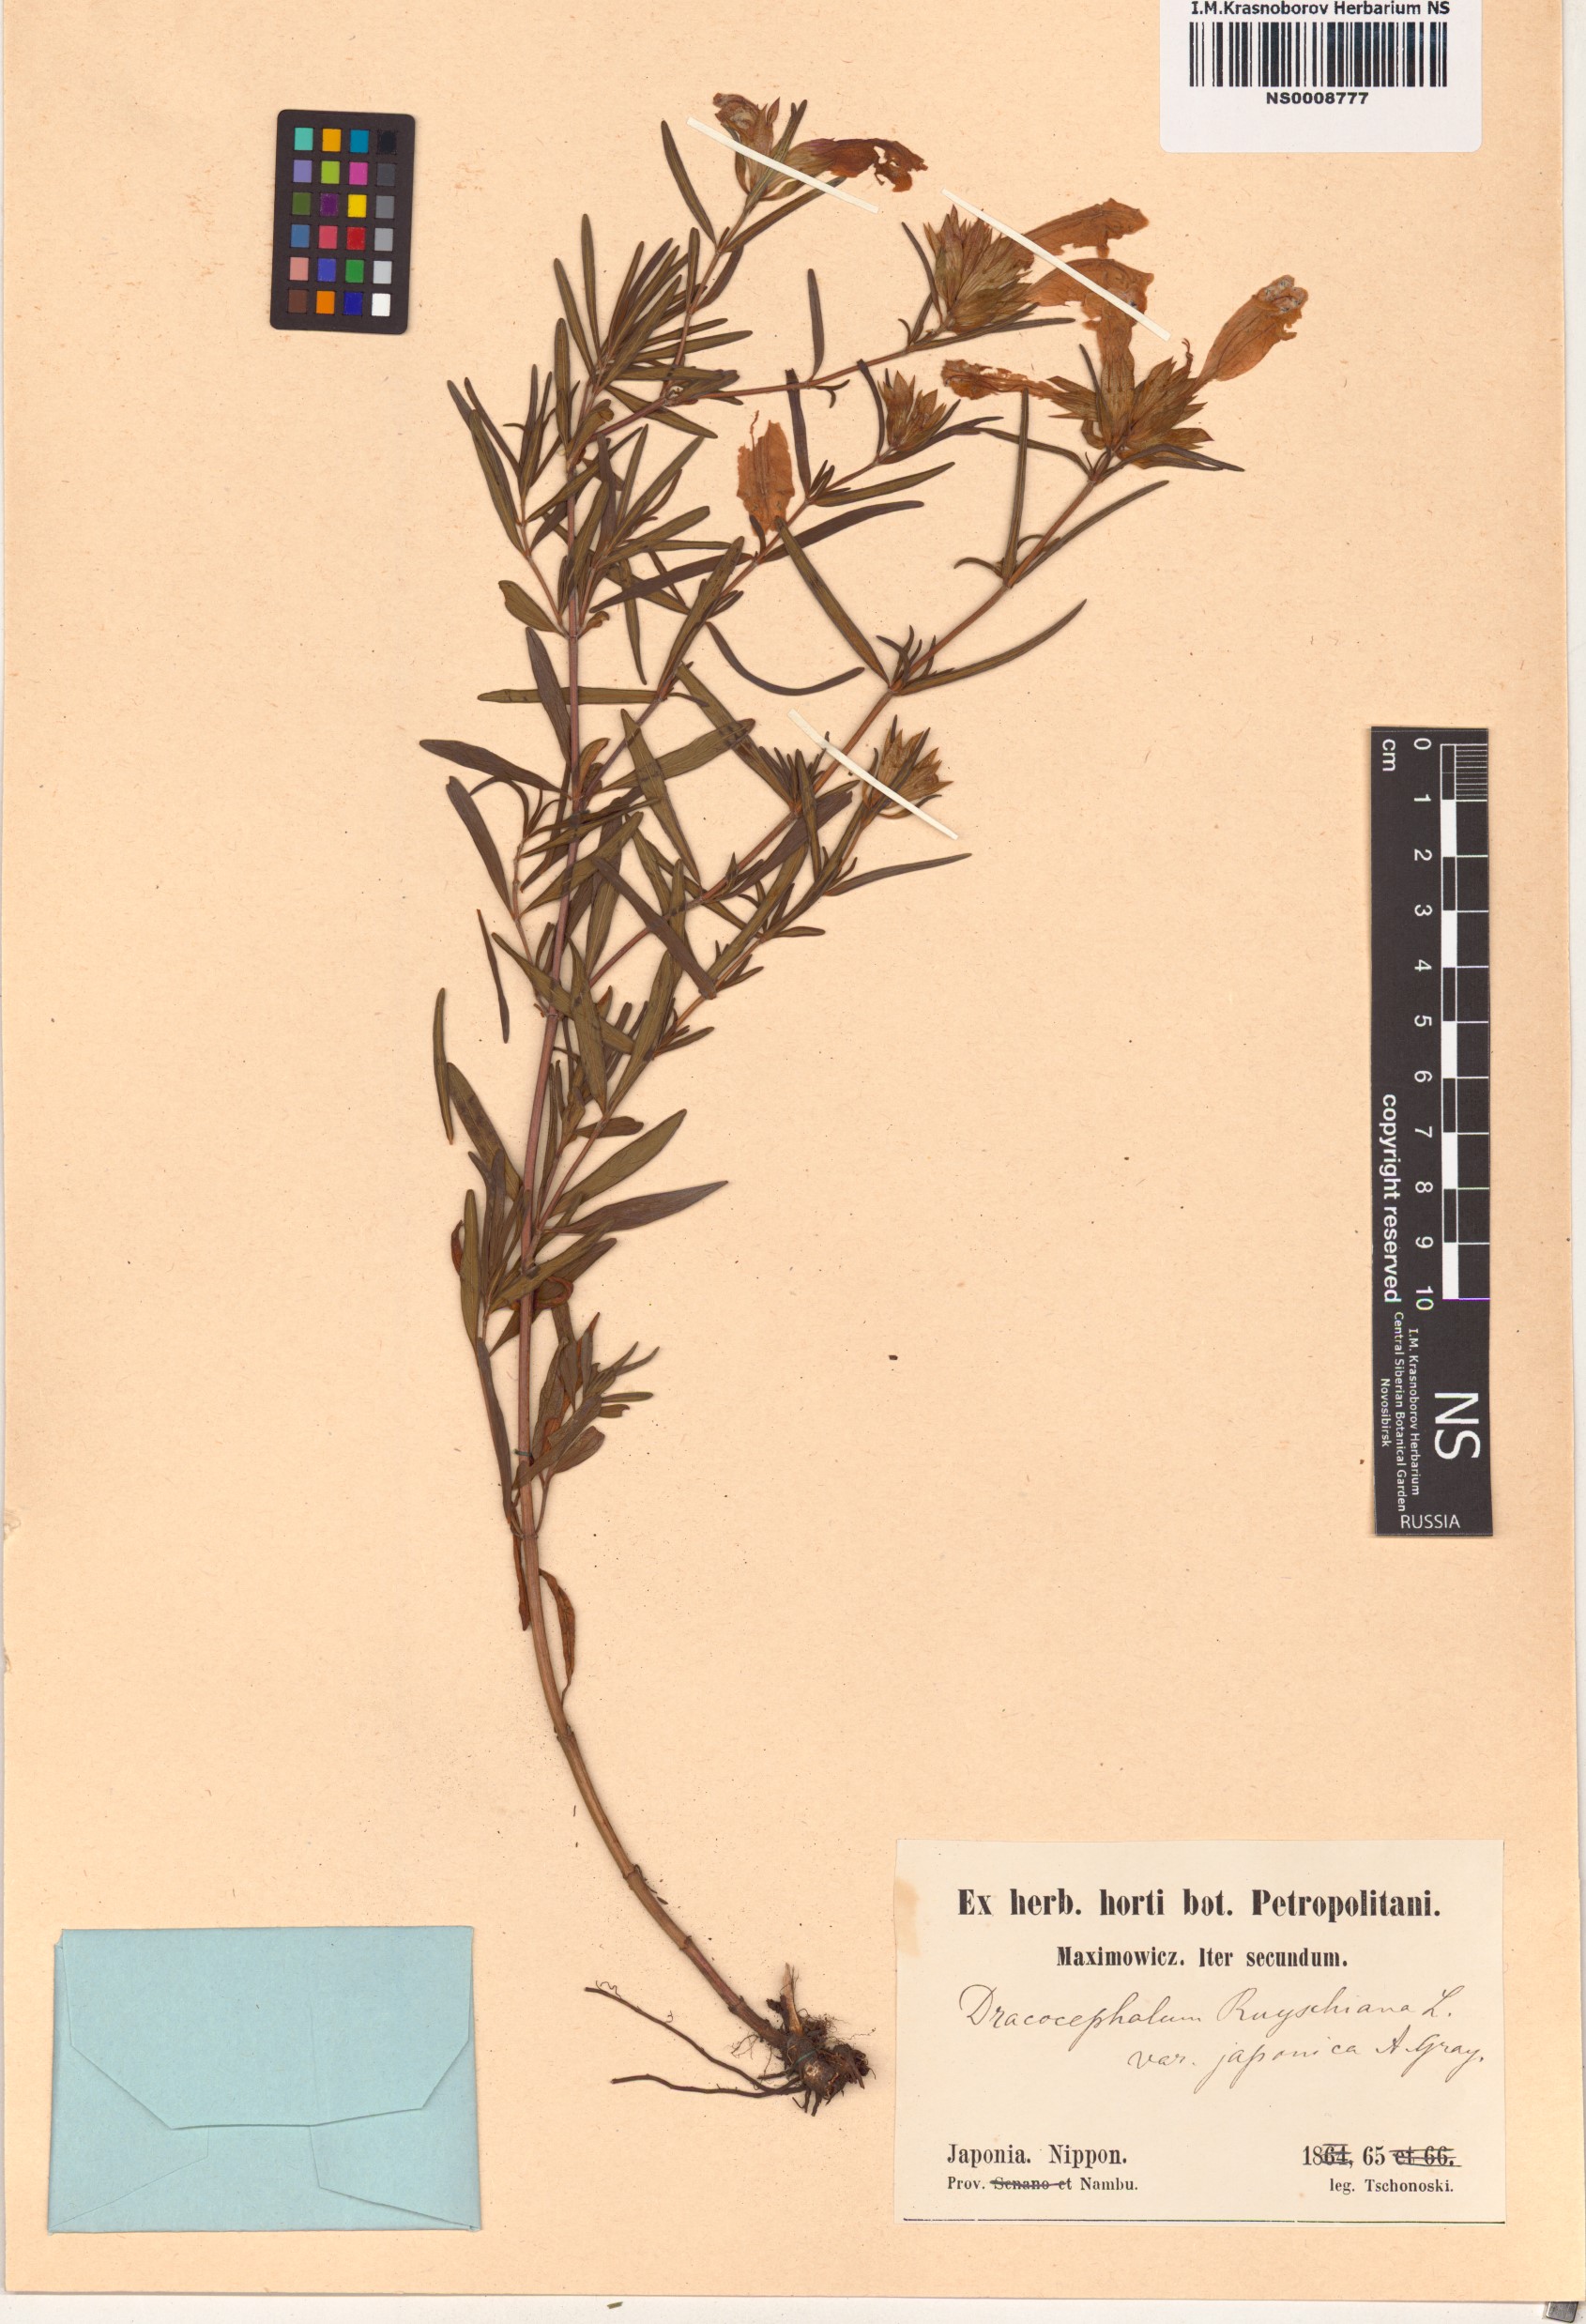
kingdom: Plantae
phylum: Tracheophyta
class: Magnoliopsida
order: Lamiales
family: Lamiaceae
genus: Dracocephalum
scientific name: Dracocephalum argunense
